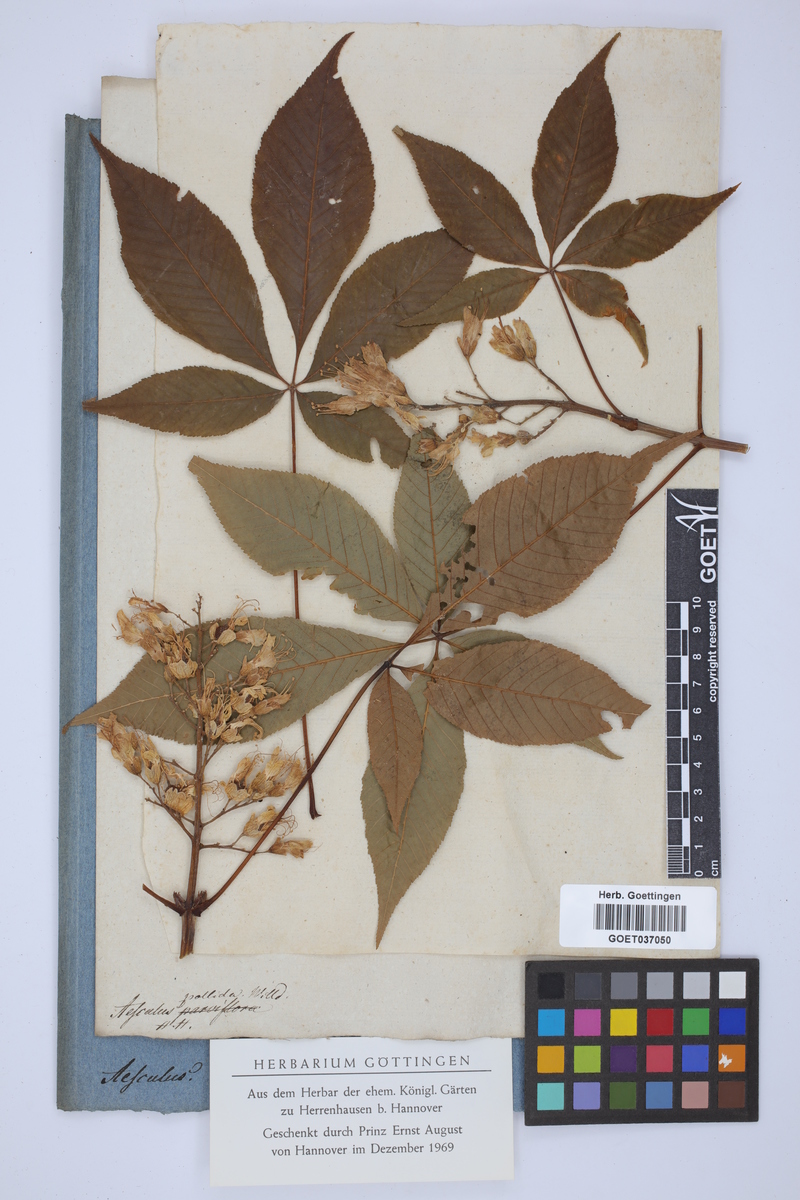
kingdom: Plantae
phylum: Tracheophyta
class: Magnoliopsida
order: Sapindales
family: Sapindaceae
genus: Aesculus
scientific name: Aesculus glabra
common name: Ohio buckeye
